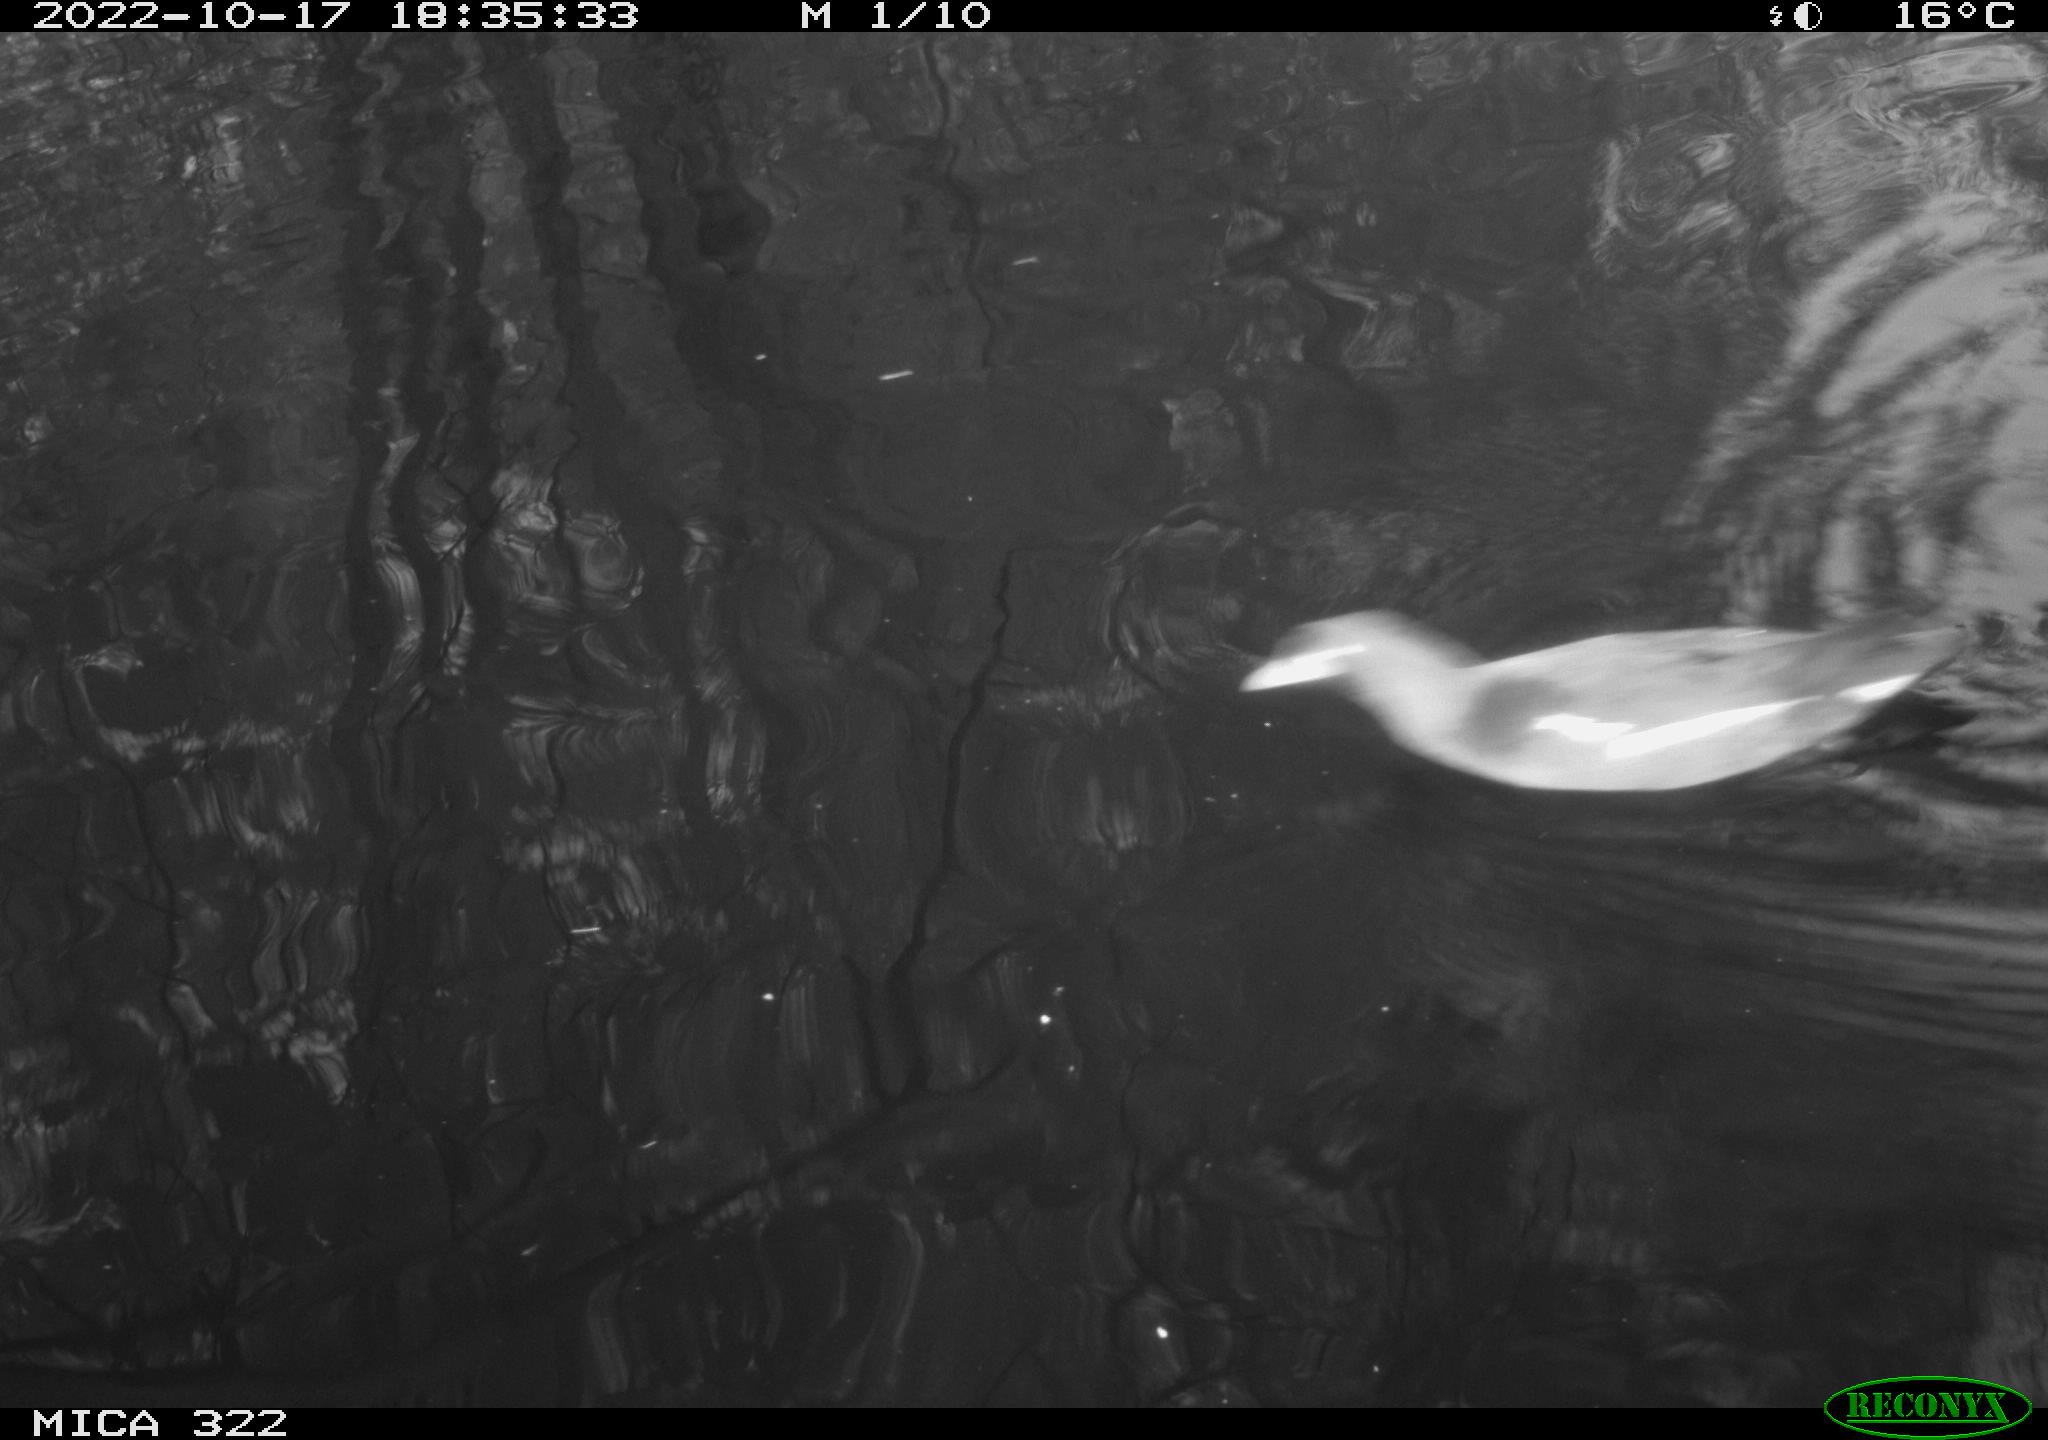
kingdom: Animalia
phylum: Chordata
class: Aves
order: Gruiformes
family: Rallidae
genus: Gallinula
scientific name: Gallinula chloropus
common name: Common moorhen
